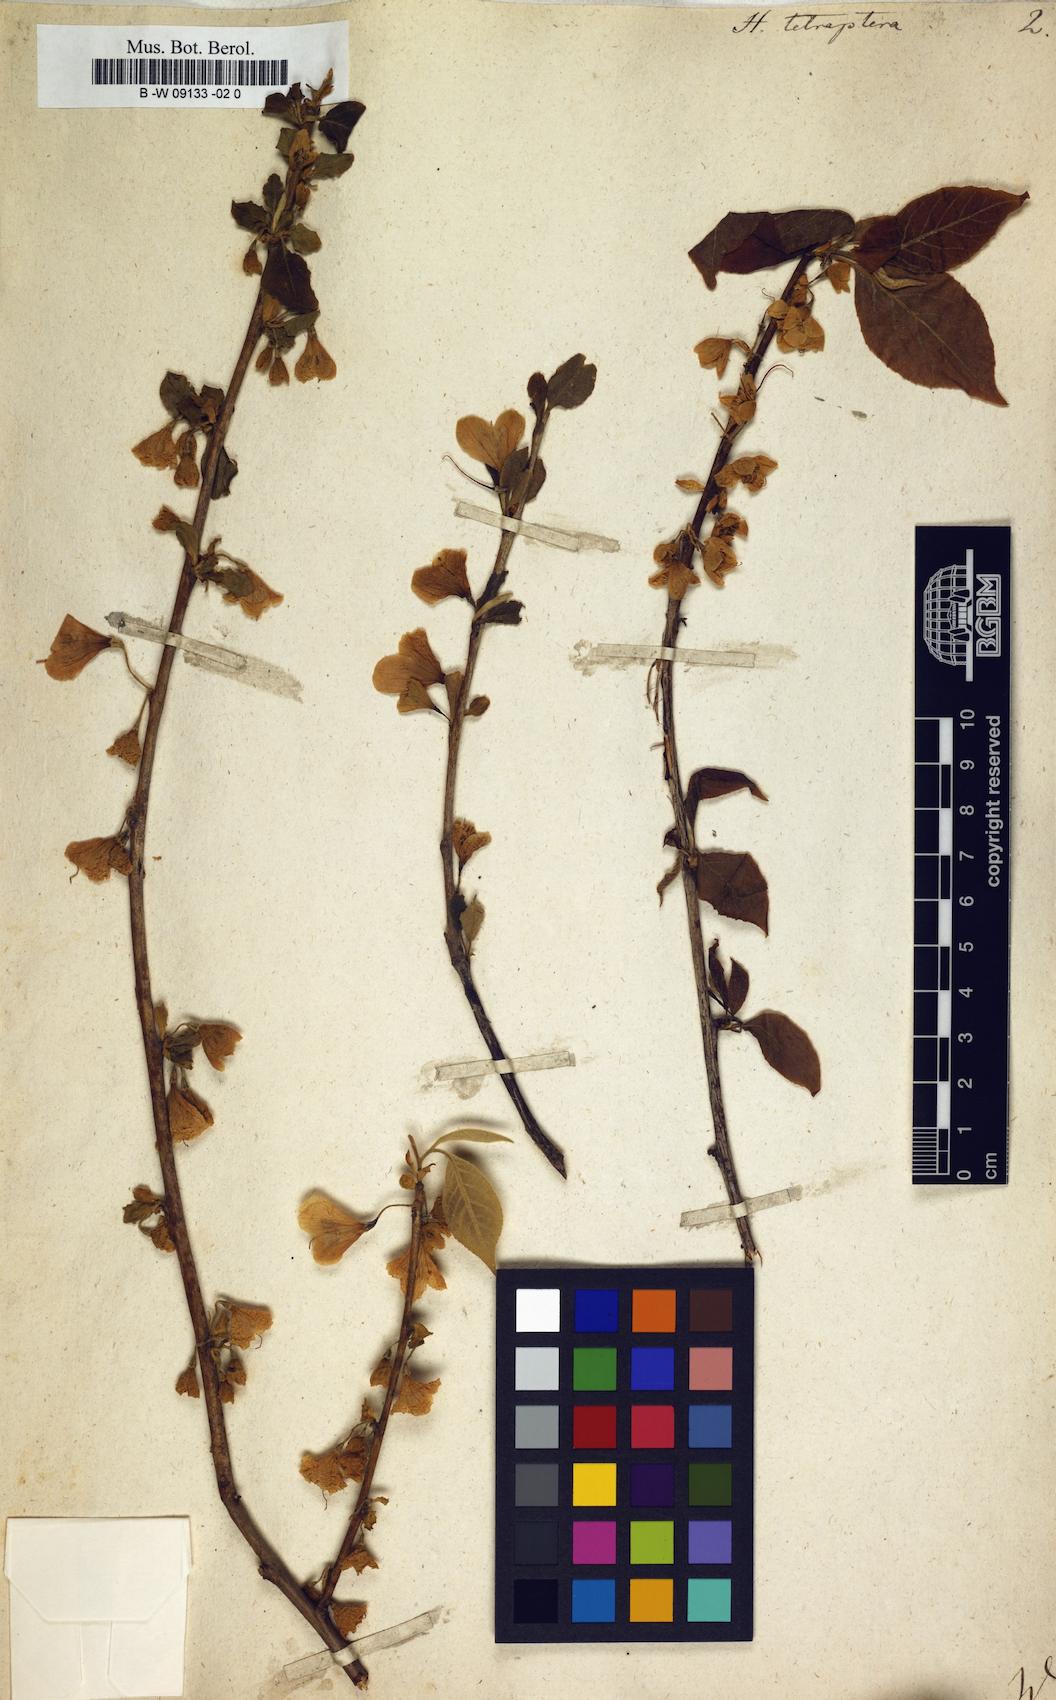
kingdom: Plantae
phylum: Tracheophyta
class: Magnoliopsida
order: Ericales
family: Styracaceae
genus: Halesia
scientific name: Halesia tetraptera
